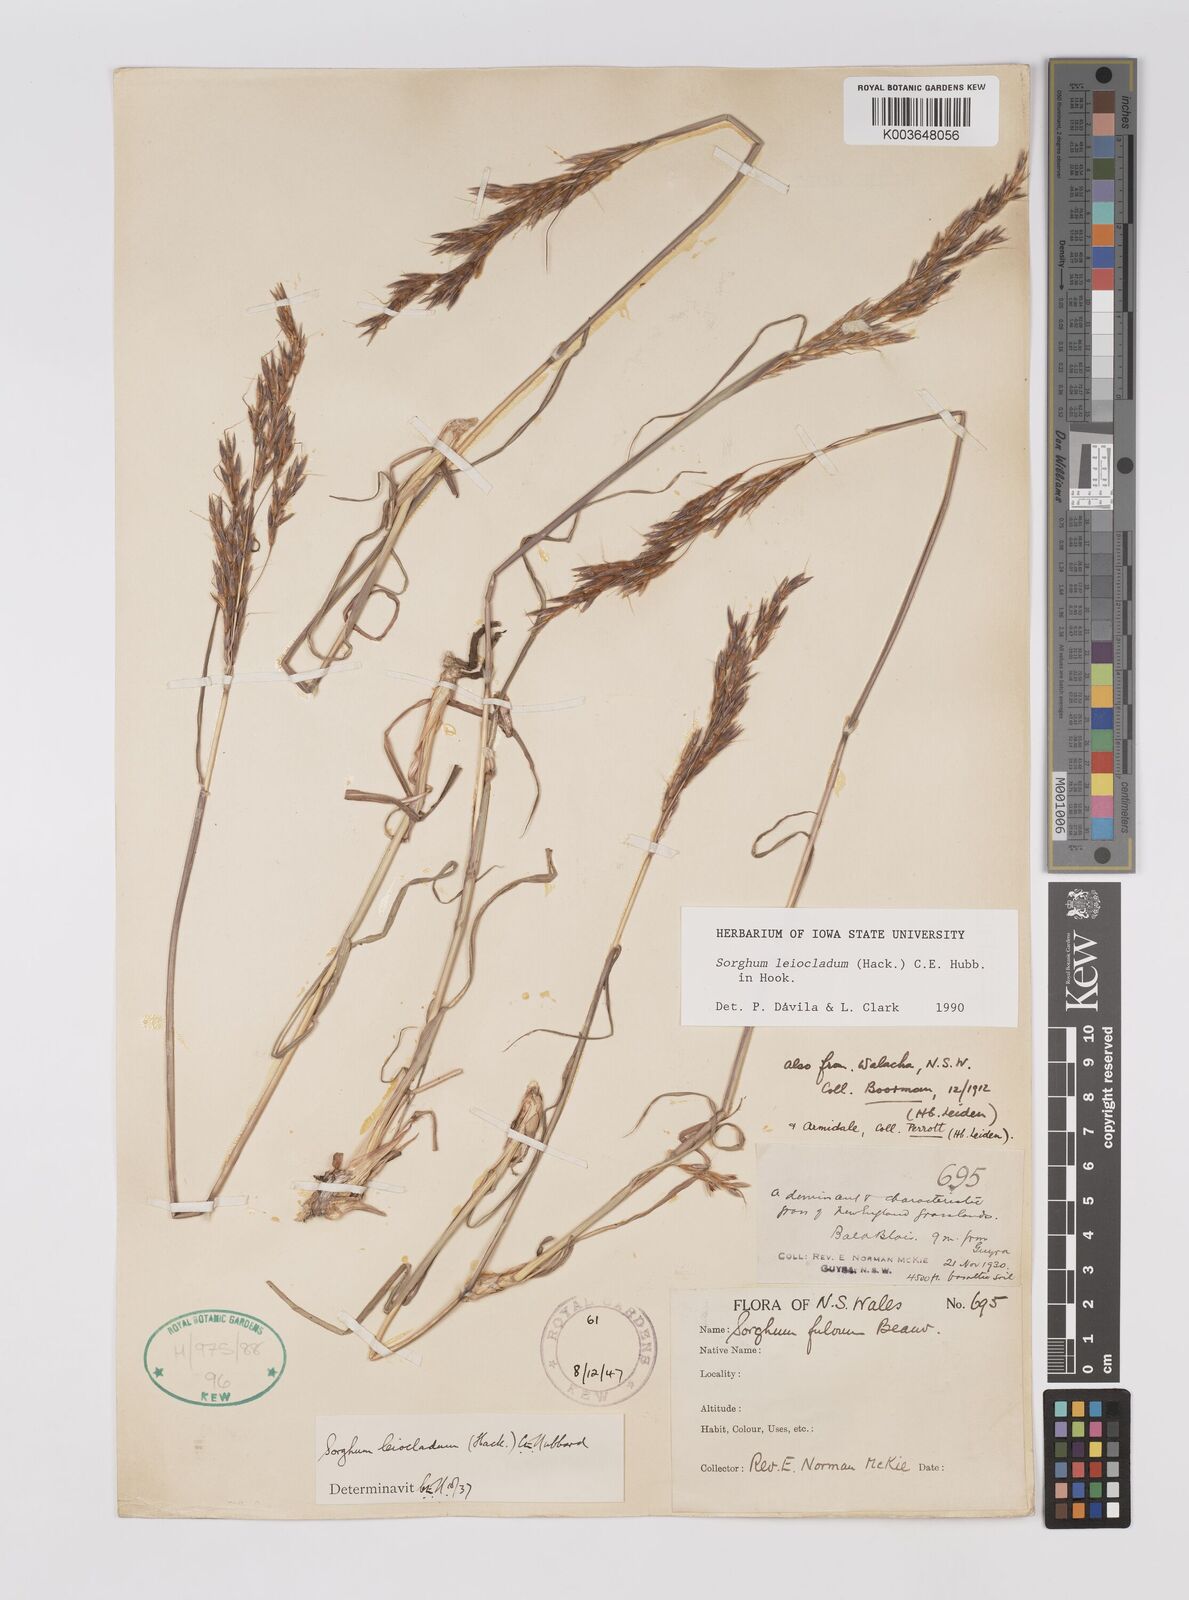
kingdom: Plantae
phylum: Tracheophyta
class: Liliopsida
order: Poales
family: Poaceae
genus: Sarga
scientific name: Sarga leioclada
